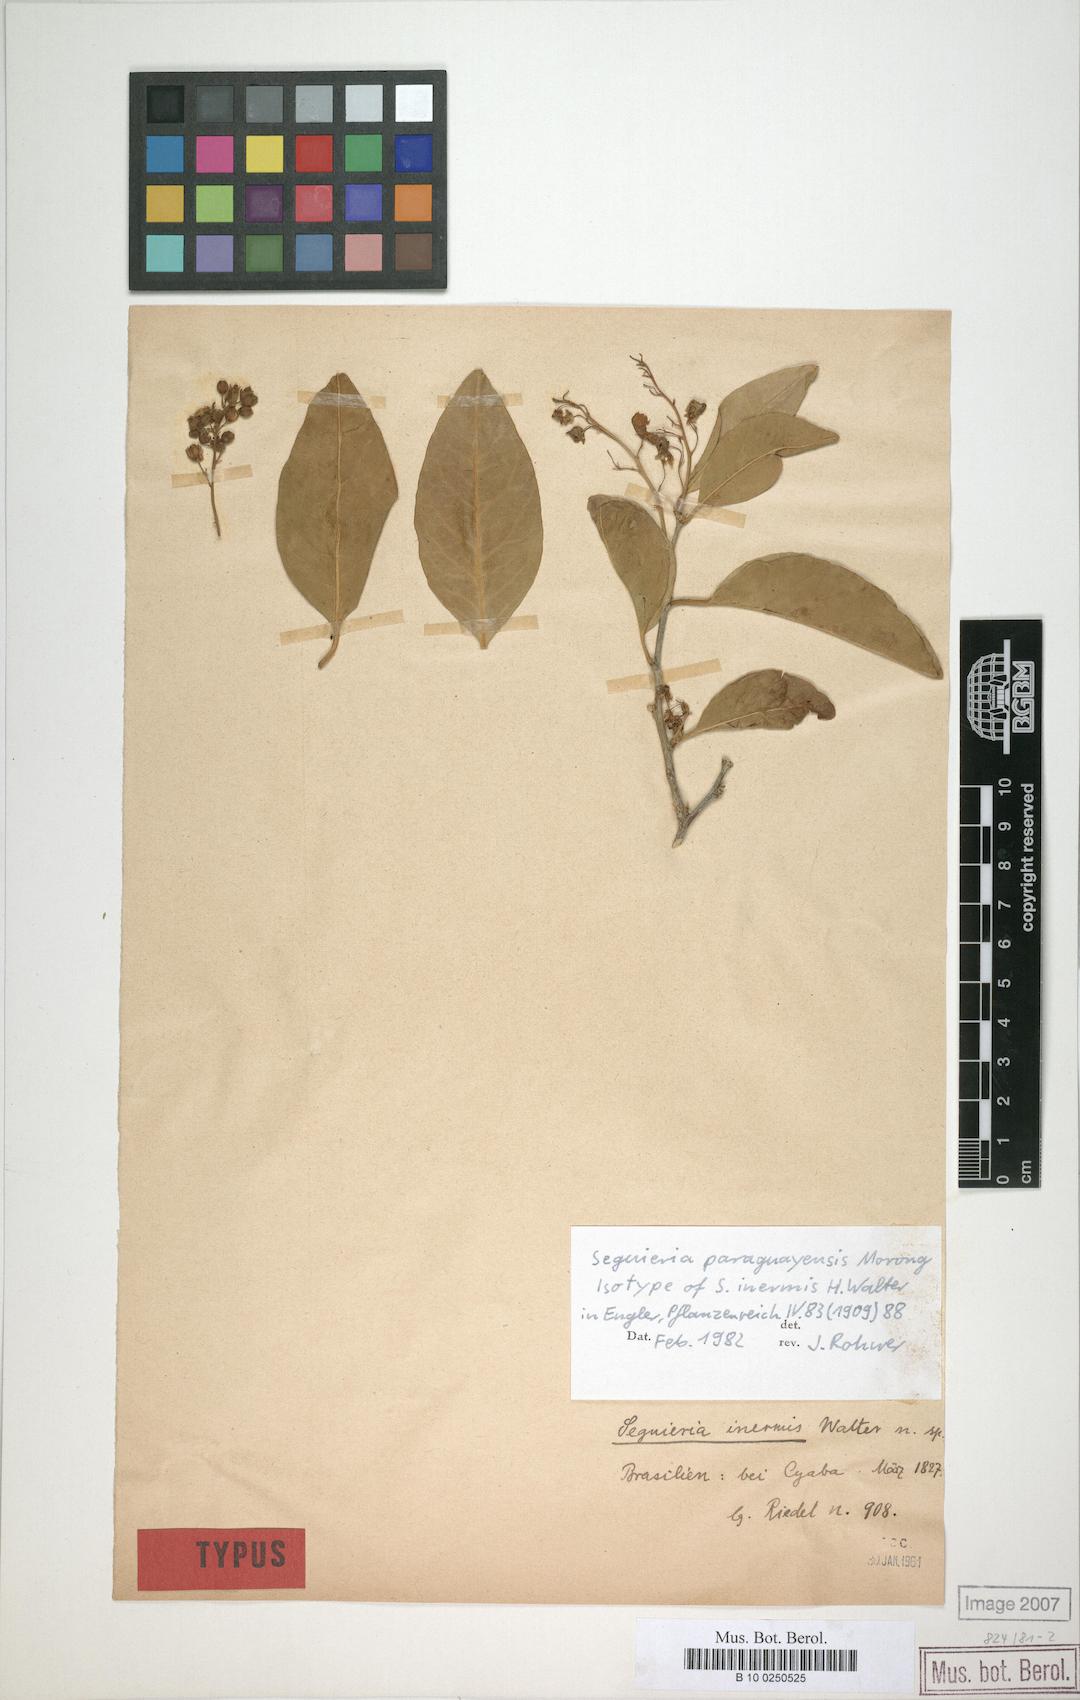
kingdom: Plantae
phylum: Tracheophyta
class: Magnoliopsida
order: Caryophyllales
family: Phytolaccaceae
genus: Seguieria
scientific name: Seguieria paraguayensis
